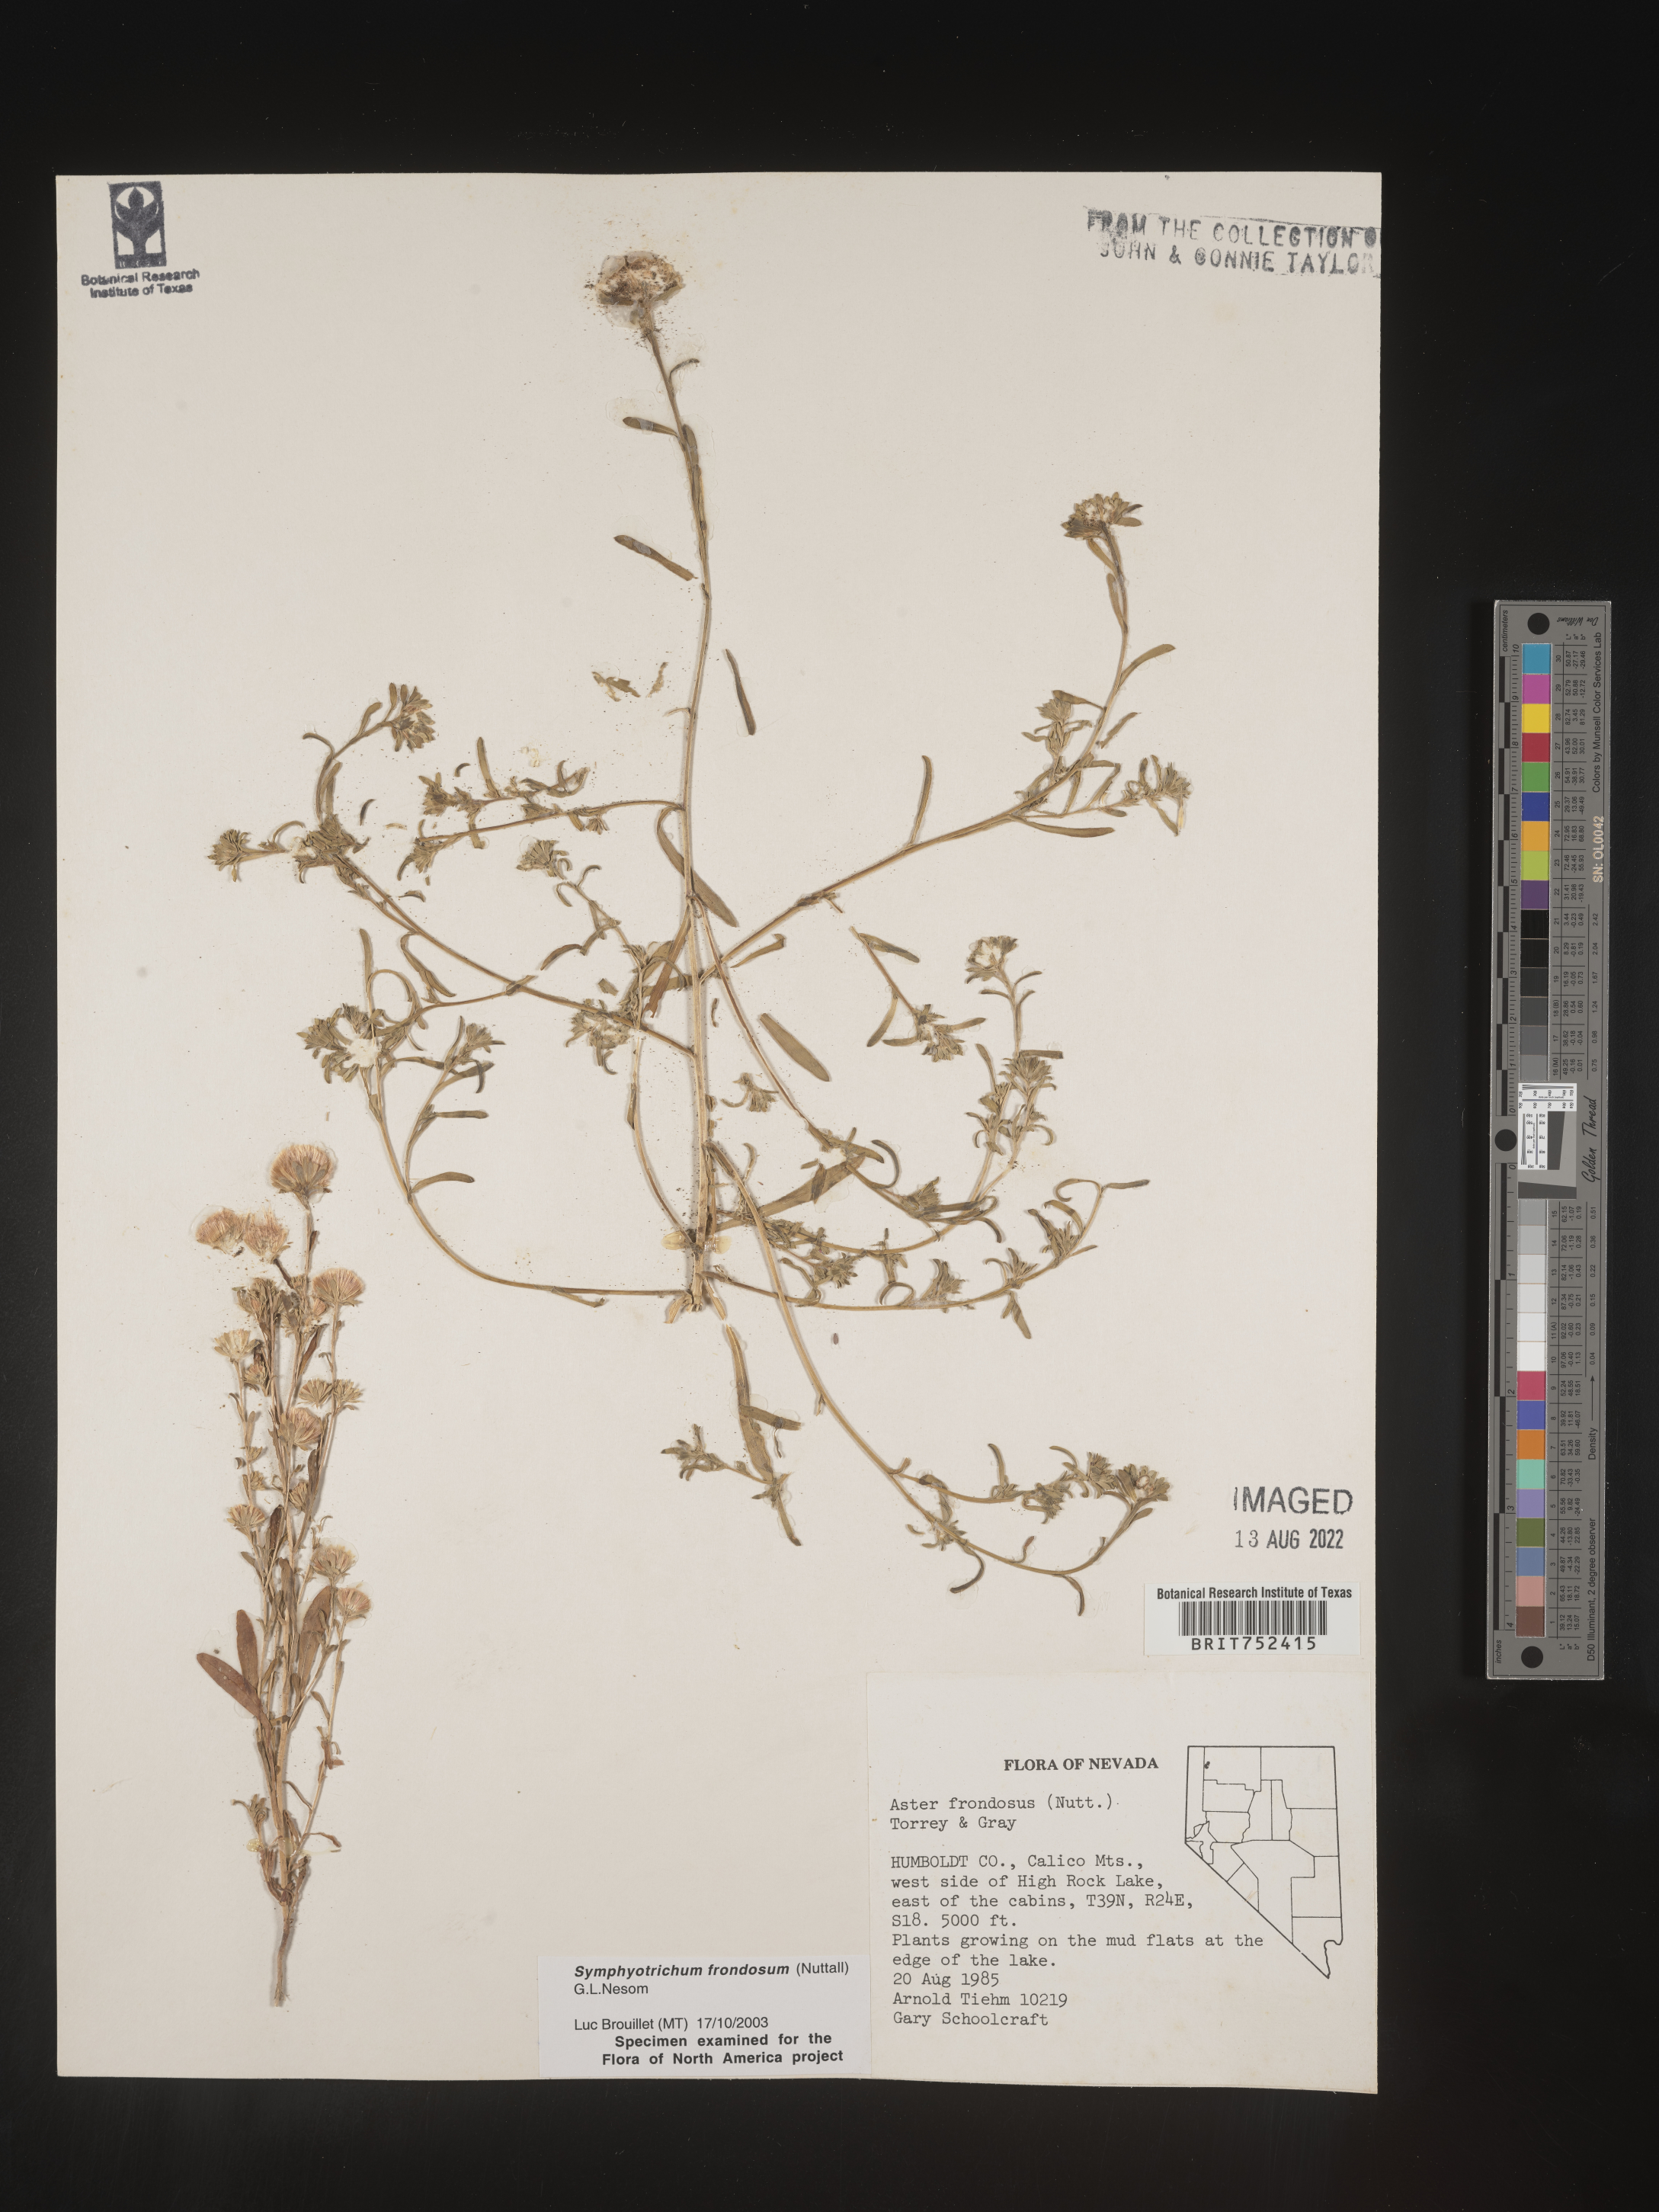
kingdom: Plantae
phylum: Tracheophyta
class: Magnoliopsida
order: Asterales
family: Asteraceae
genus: Symphyotrichum
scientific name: Symphyotrichum frondosum
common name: Leafy aster
